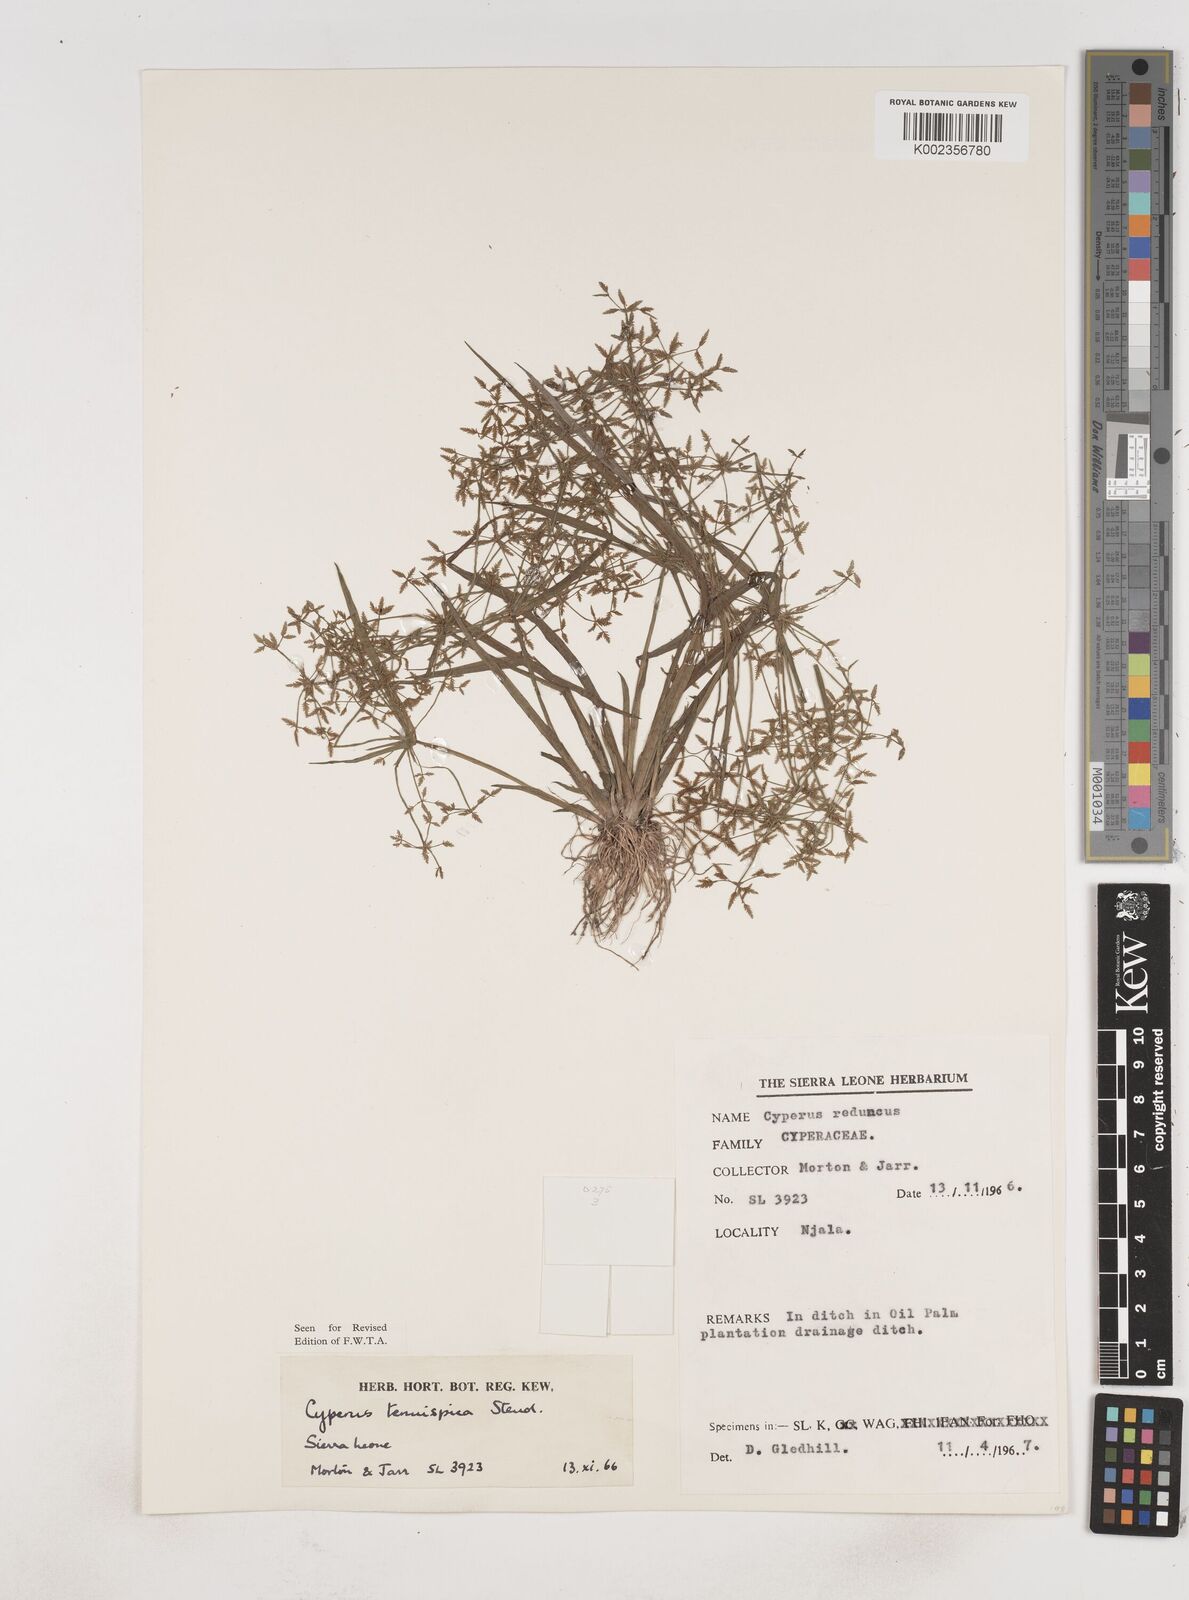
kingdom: Plantae
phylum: Tracheophyta
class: Liliopsida
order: Poales
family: Cyperaceae
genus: Cyperus
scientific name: Cyperus tenuispica
